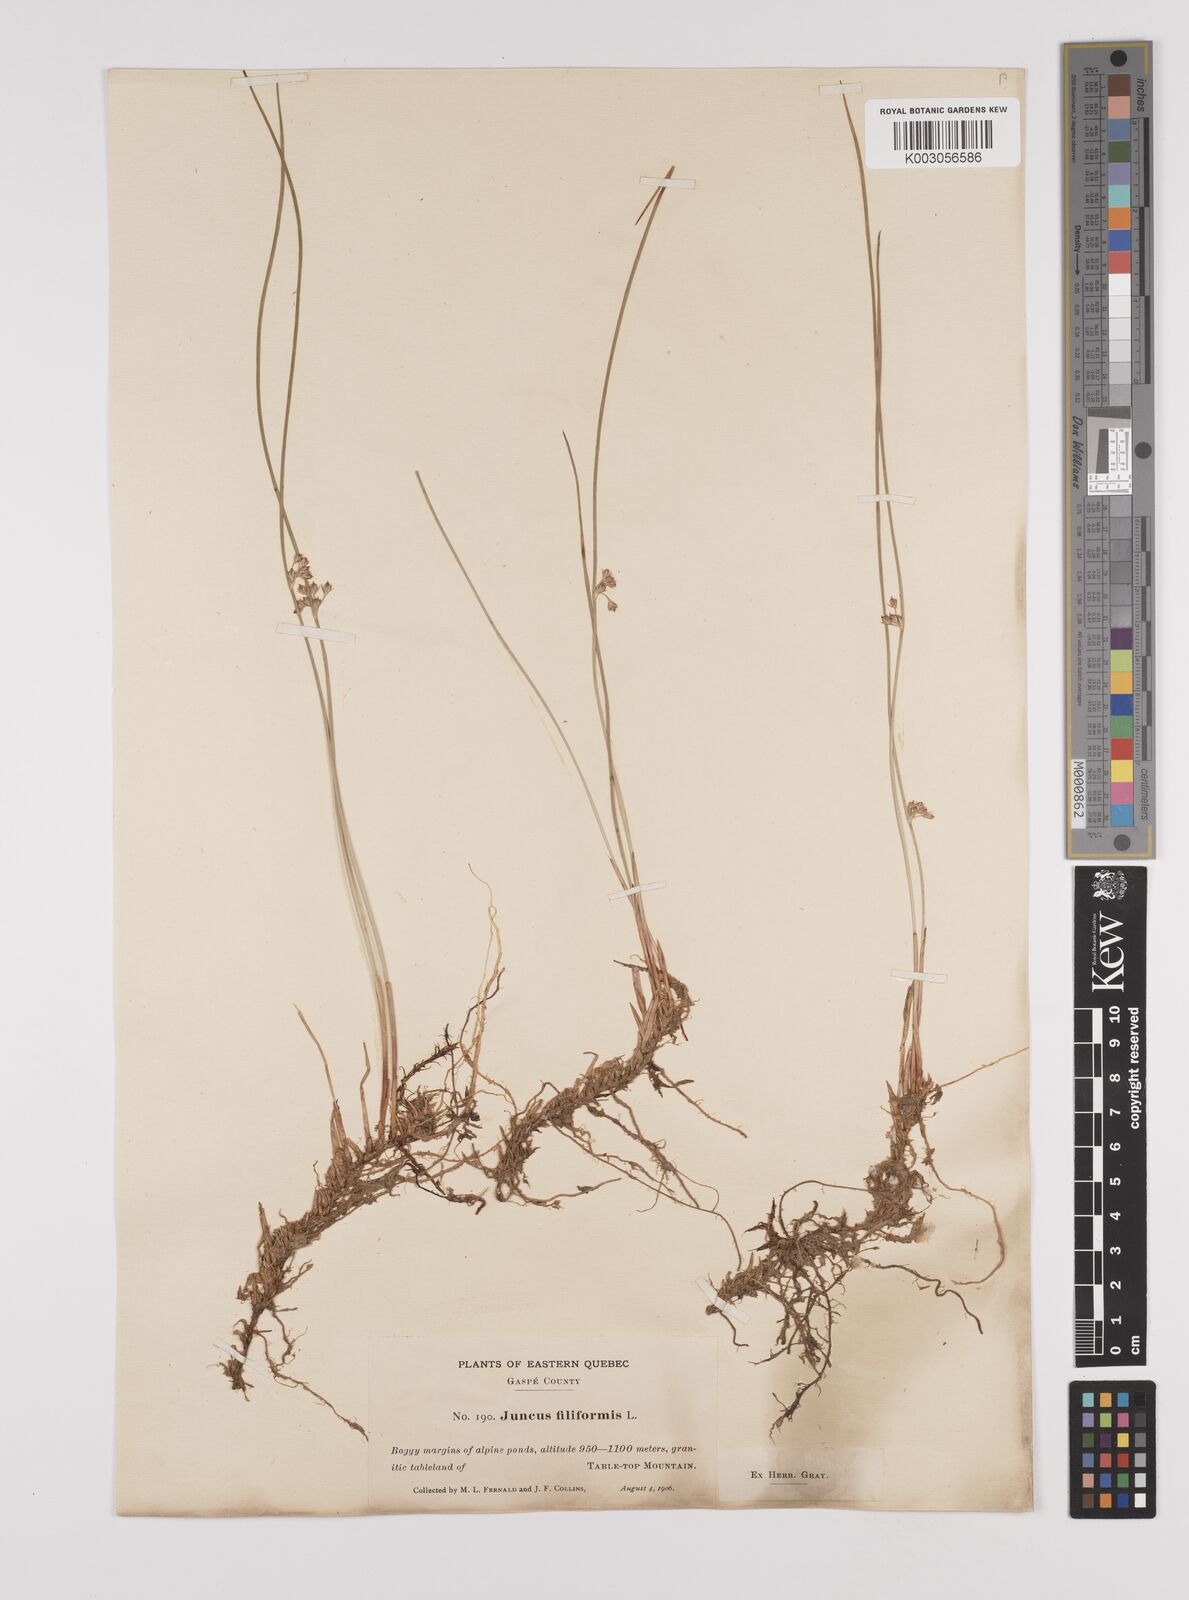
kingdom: Plantae
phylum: Tracheophyta
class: Liliopsida
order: Poales
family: Juncaceae
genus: Juncus
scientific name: Juncus filiformis
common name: Thread rush
